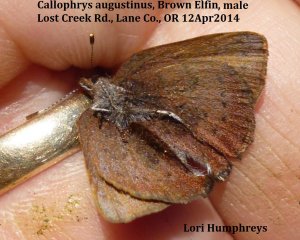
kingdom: Animalia
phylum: Arthropoda
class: Insecta
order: Lepidoptera
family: Lycaenidae
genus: Incisalia
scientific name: Incisalia irioides
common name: Brown Elfin
